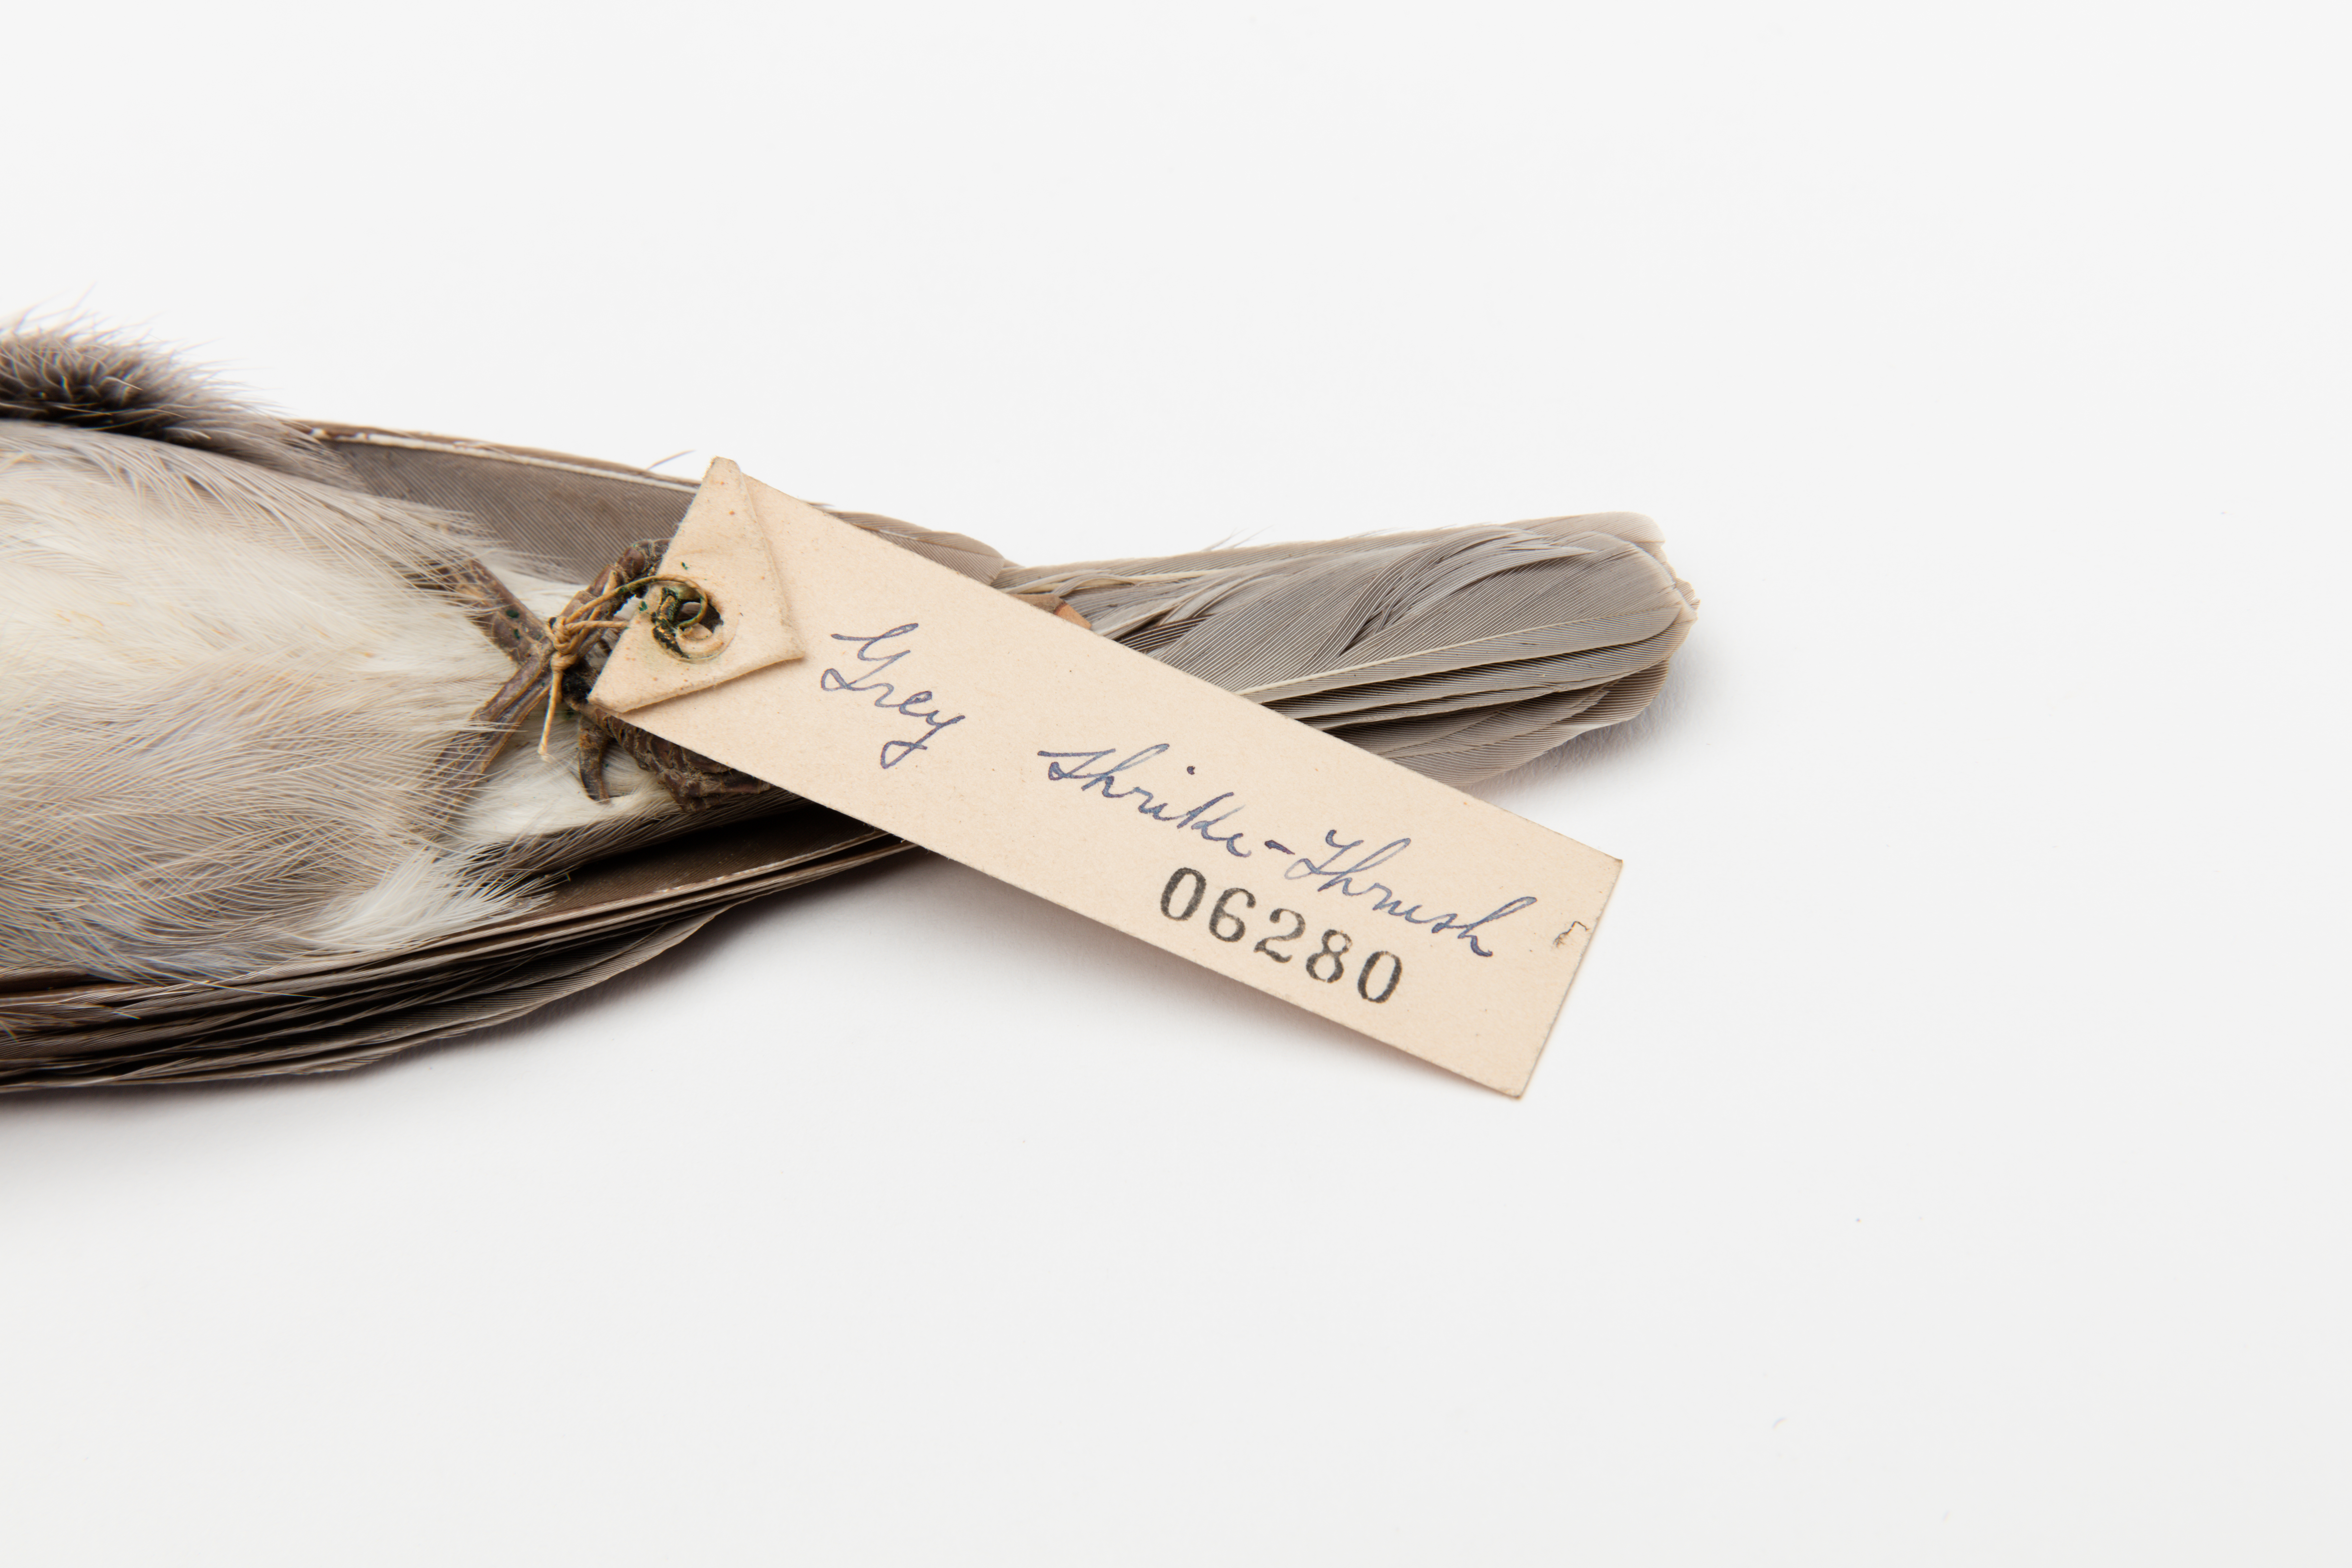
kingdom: Animalia
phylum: Chordata
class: Aves
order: Passeriformes
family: Pachycephalidae
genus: Colluricincla
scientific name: Colluricincla harmonica
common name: Grey shrikethrush
